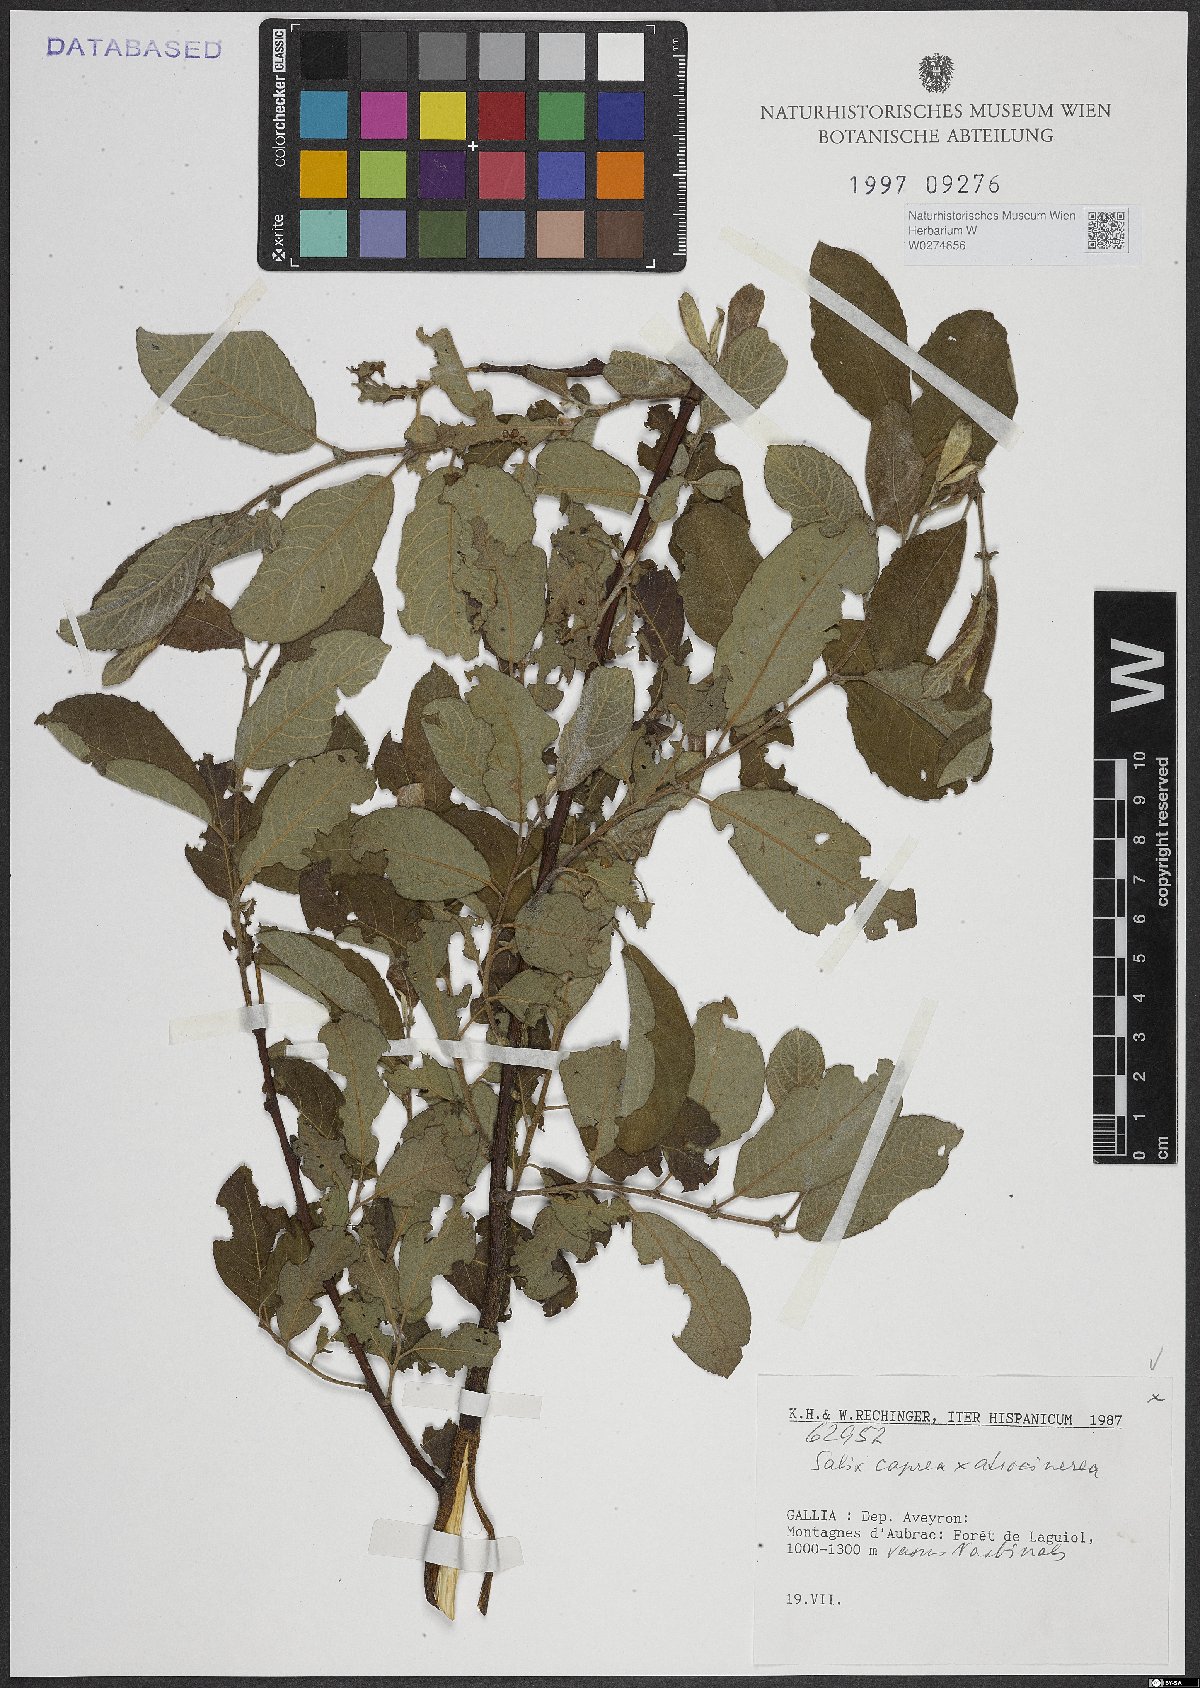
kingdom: Plantae
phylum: Tracheophyta
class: Magnoliopsida
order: Malpighiales
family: Salicaceae
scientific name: Salicaceae
